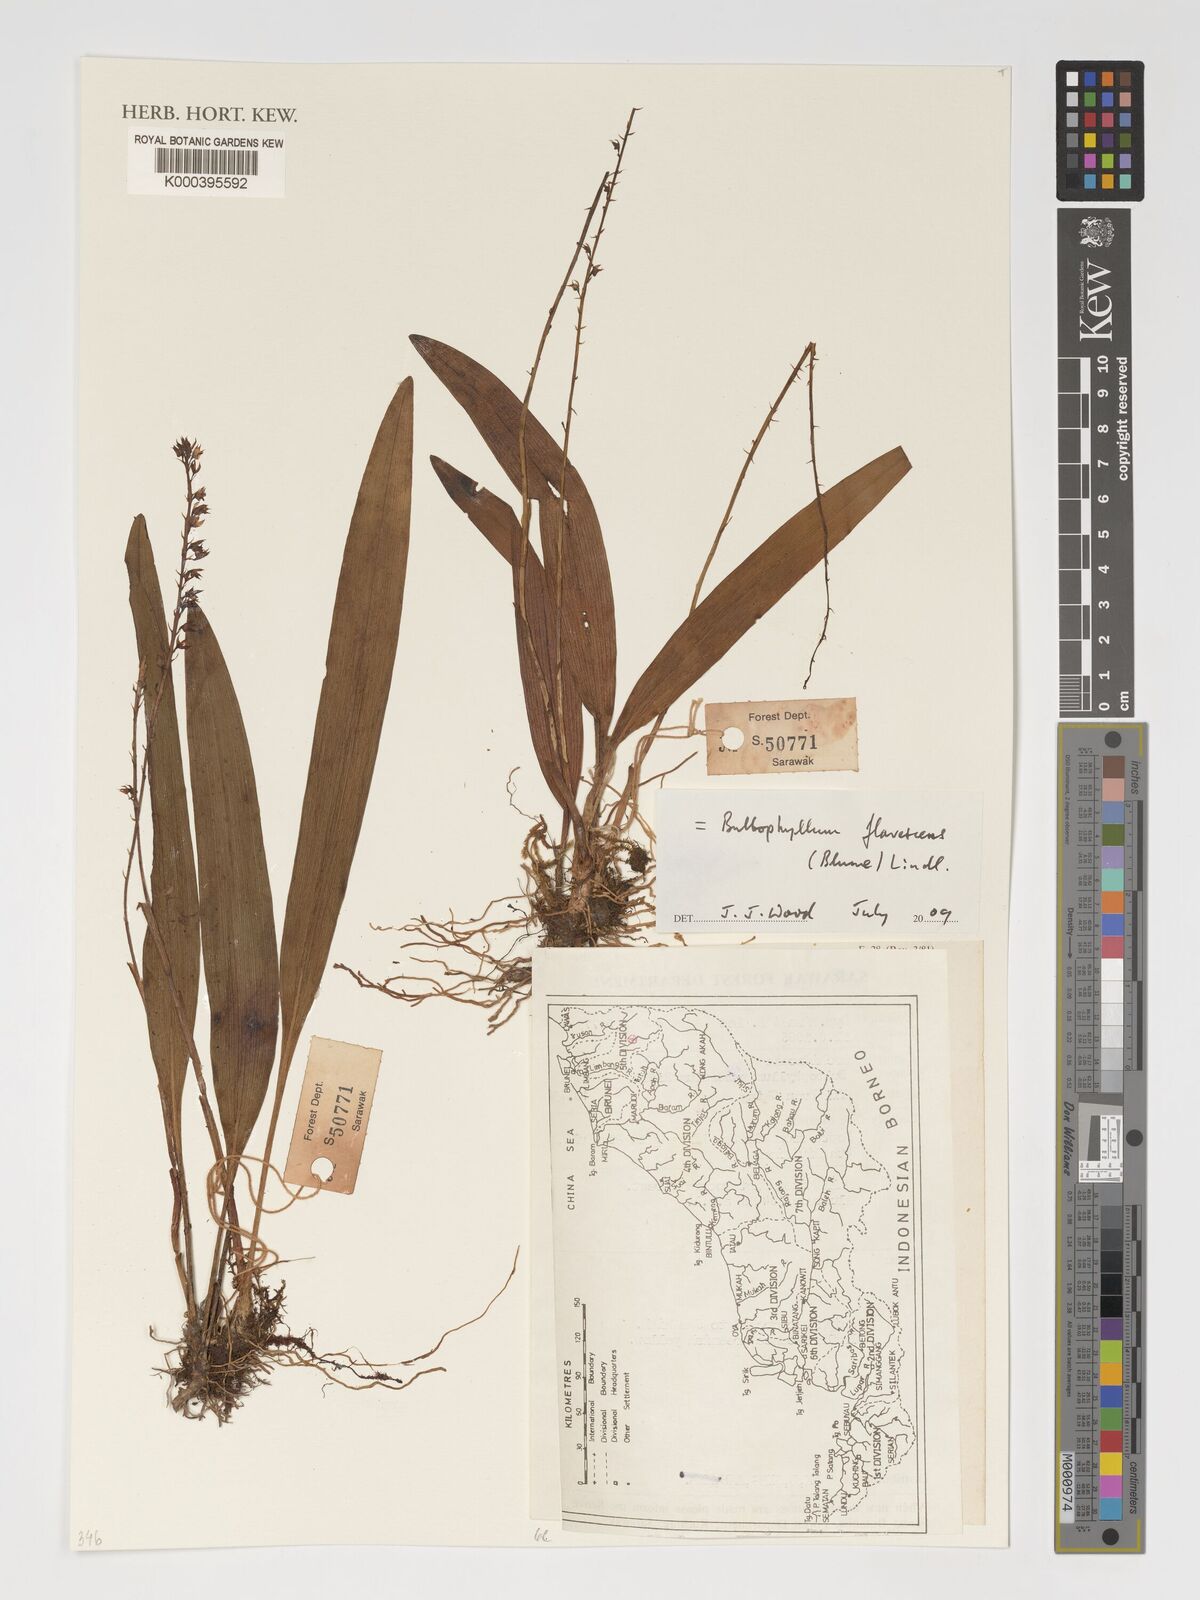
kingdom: Plantae
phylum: Tracheophyta
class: Liliopsida
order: Asparagales
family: Orchidaceae
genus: Bulbophyllum
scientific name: Bulbophyllum flavescens
